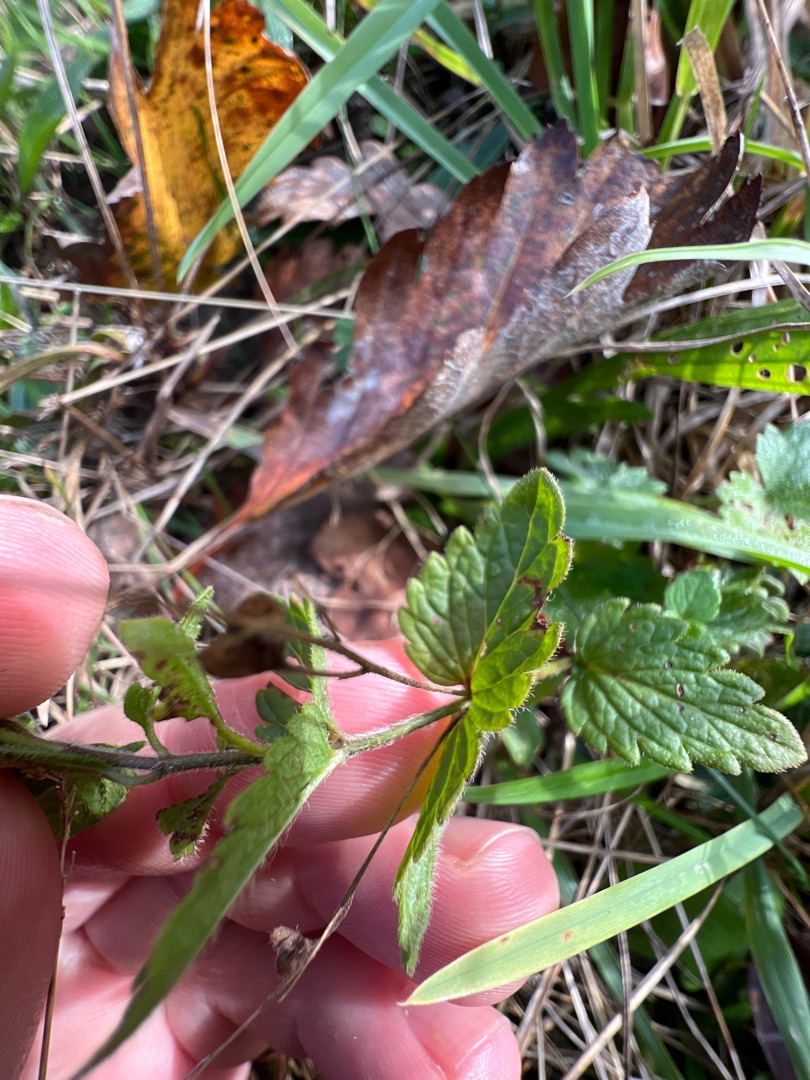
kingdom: Plantae
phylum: Tracheophyta
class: Magnoliopsida
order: Lamiales
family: Plantaginaceae
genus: Veronica
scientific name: Veronica chamaedrys
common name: Tveskægget ærenpris
